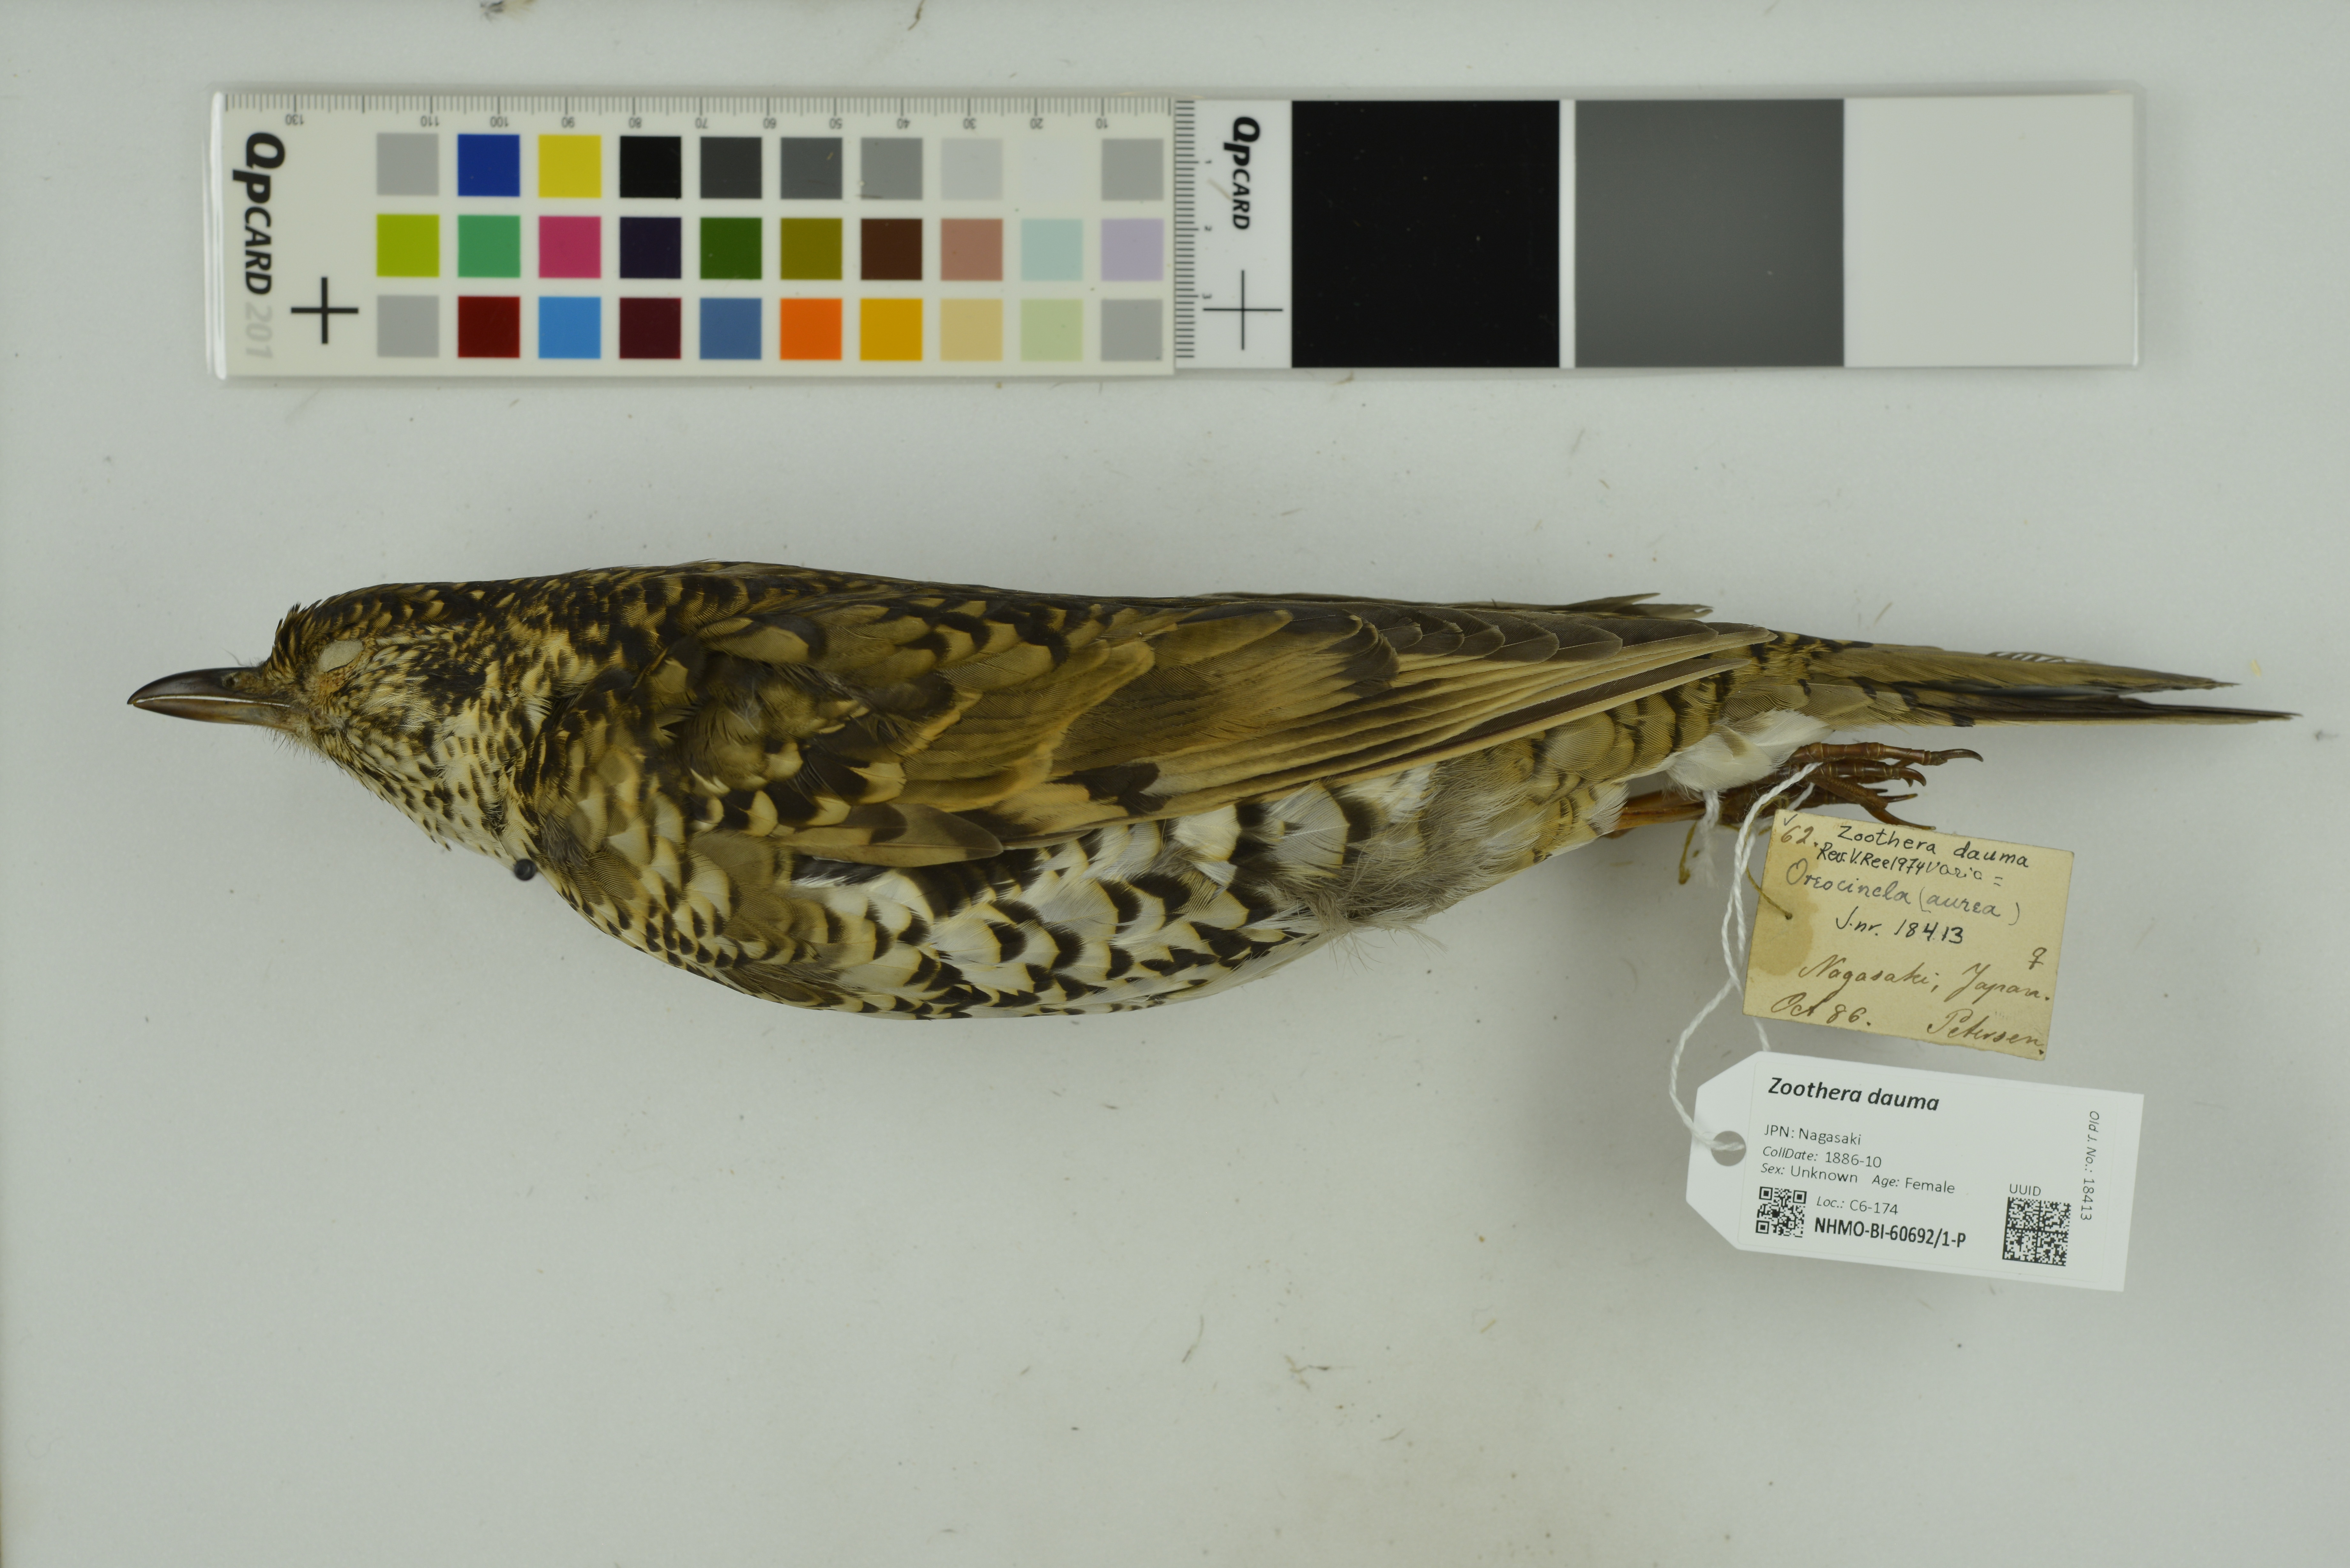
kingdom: Animalia
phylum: Chordata
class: Aves
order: Passeriformes
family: Turdidae
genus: Zoothera
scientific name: Zoothera dauma
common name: Scaly thrush
